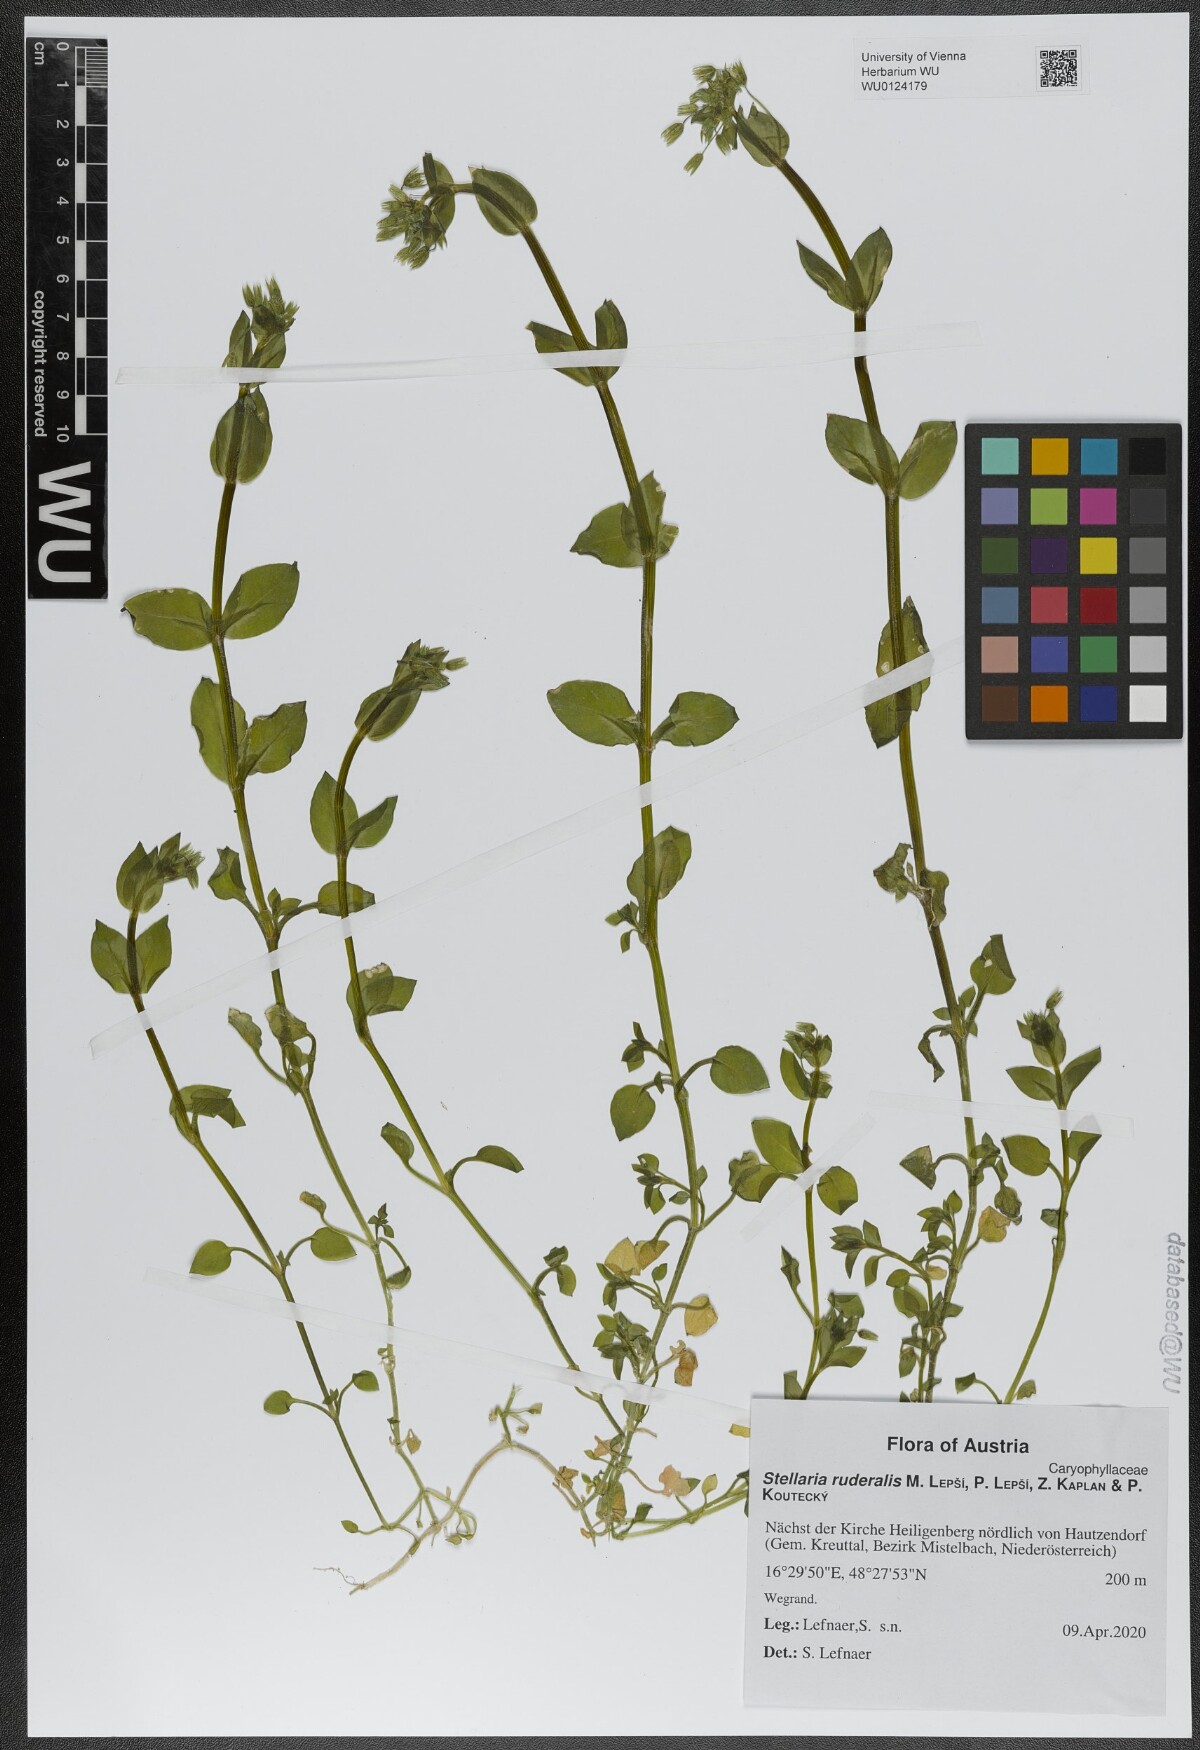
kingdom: Plantae
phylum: Tracheophyta
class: Magnoliopsida
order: Caryophyllales
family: Caryophyllaceae
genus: Stellaria
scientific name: Stellaria ruderalis
